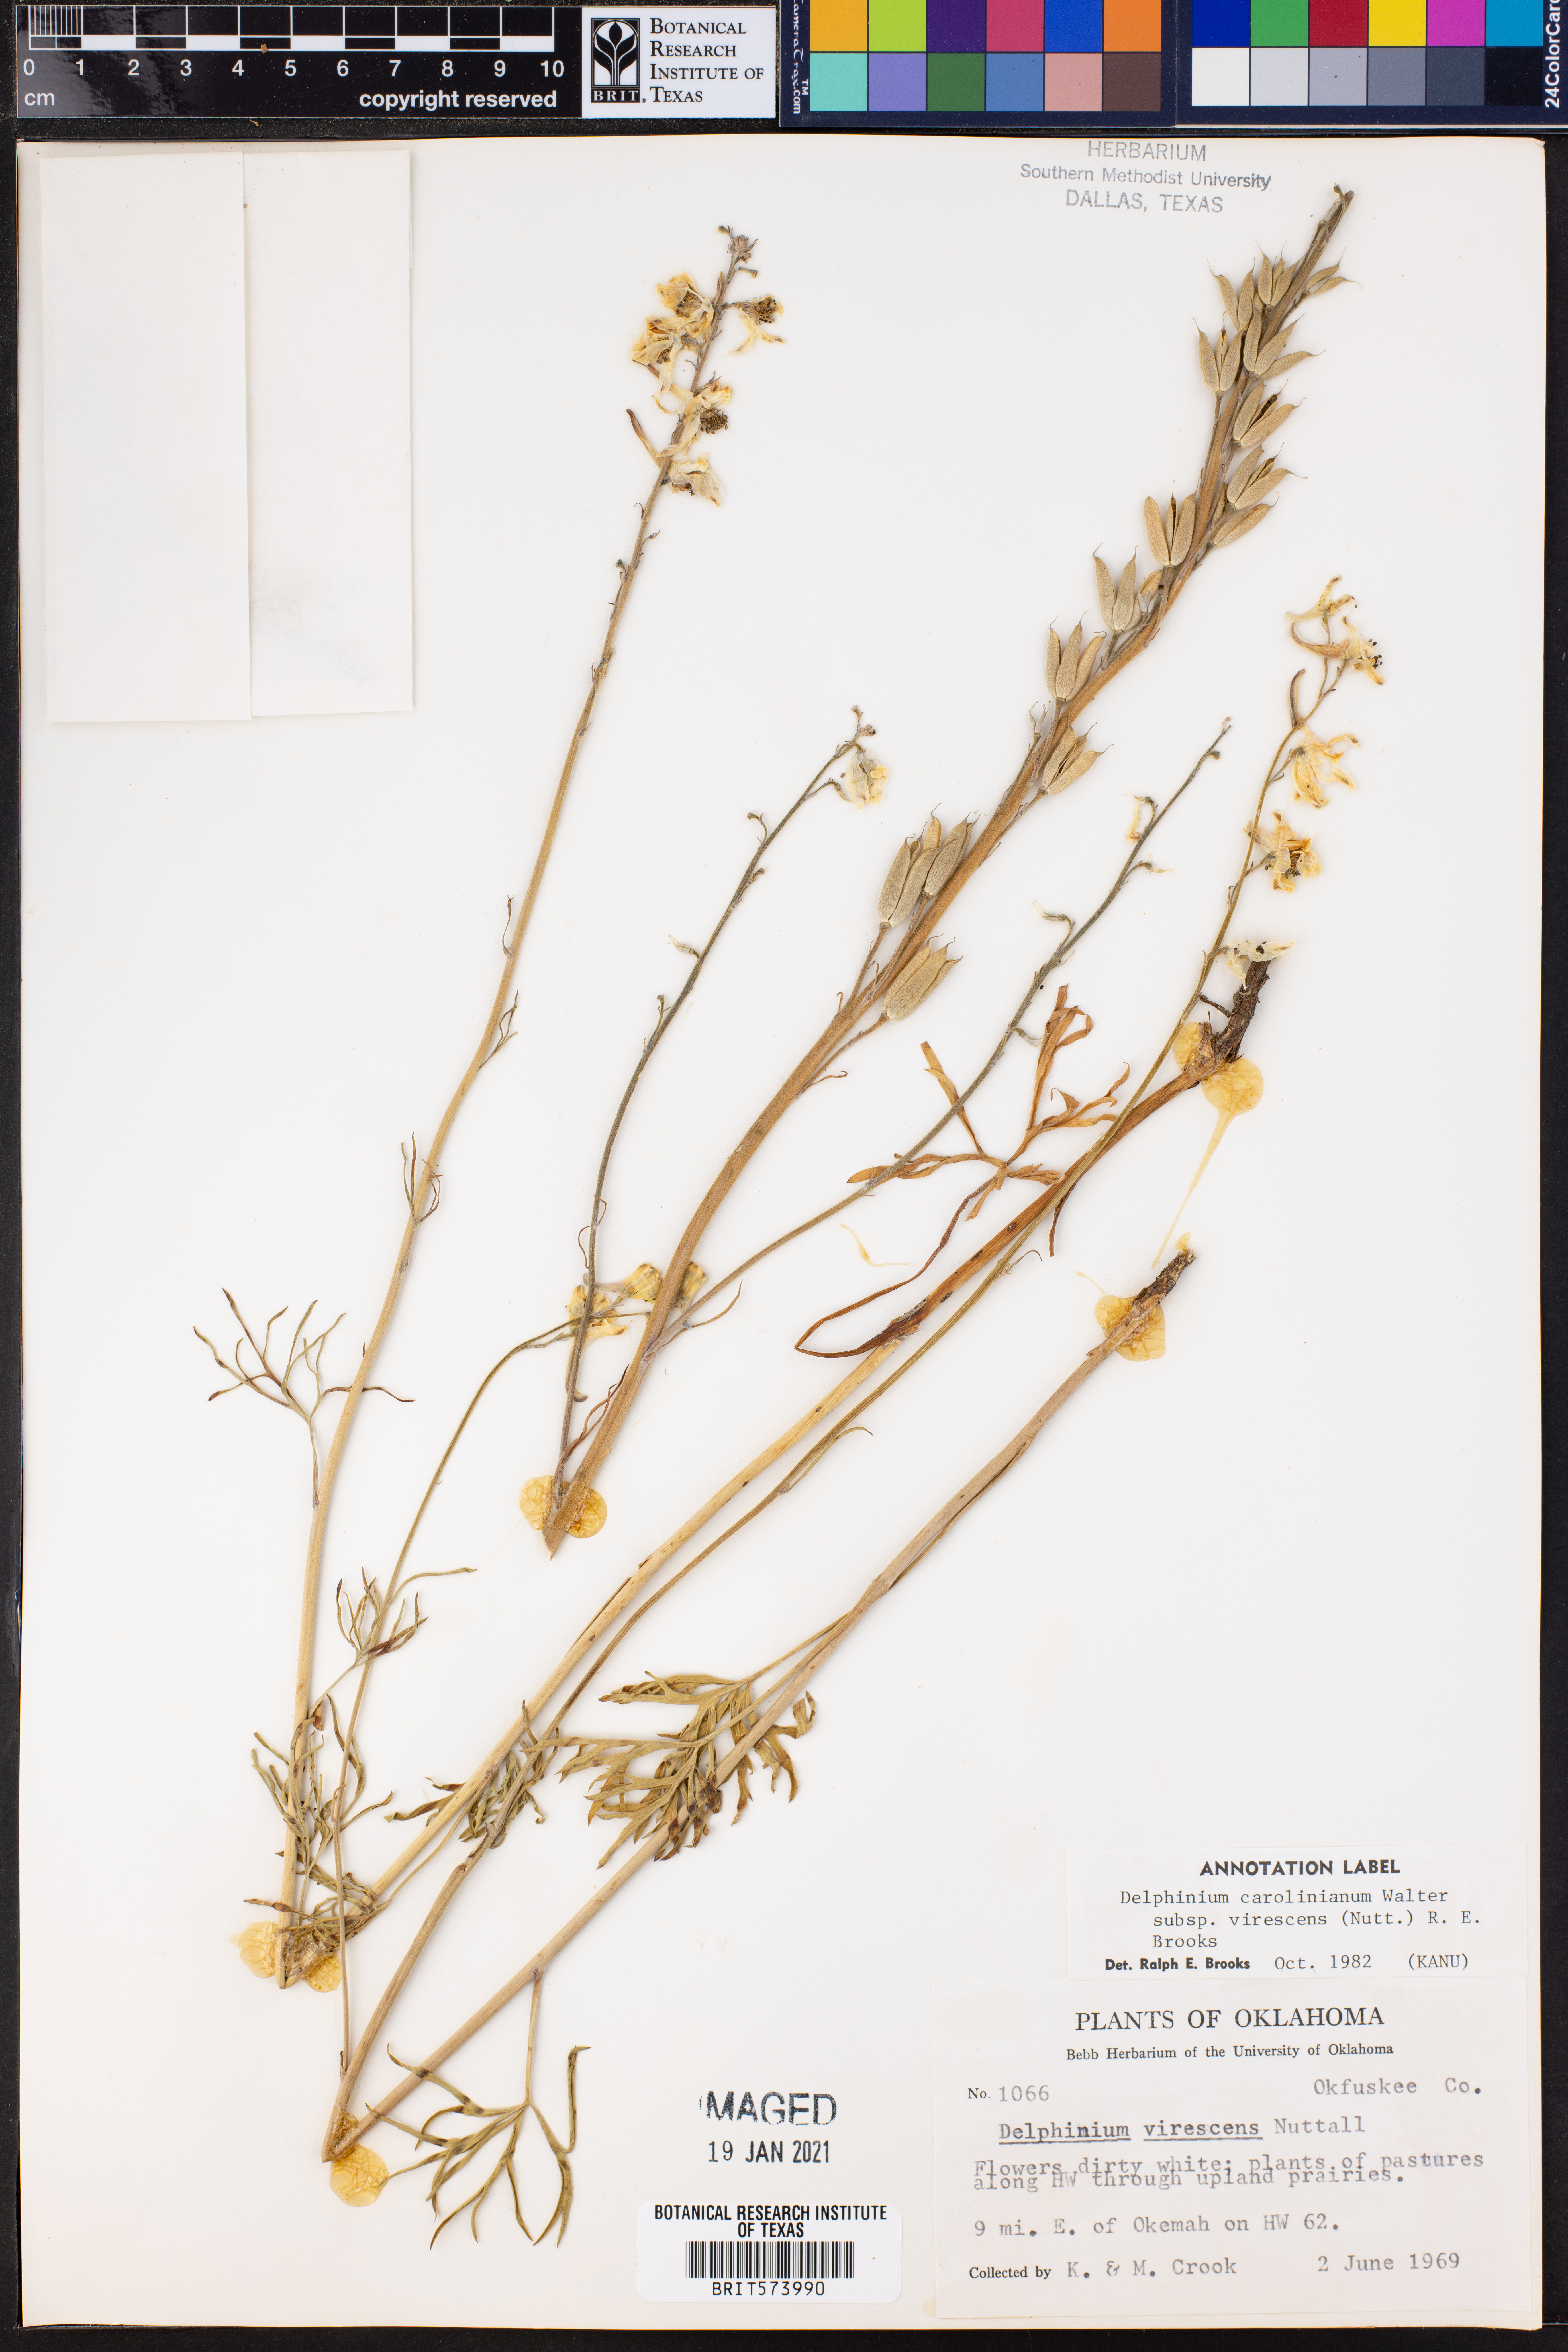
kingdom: Plantae
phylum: Tracheophyta
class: Magnoliopsida
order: Ranunculales
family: Ranunculaceae
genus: Delphinium
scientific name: Delphinium carolinianum
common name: Carolina larkspur
